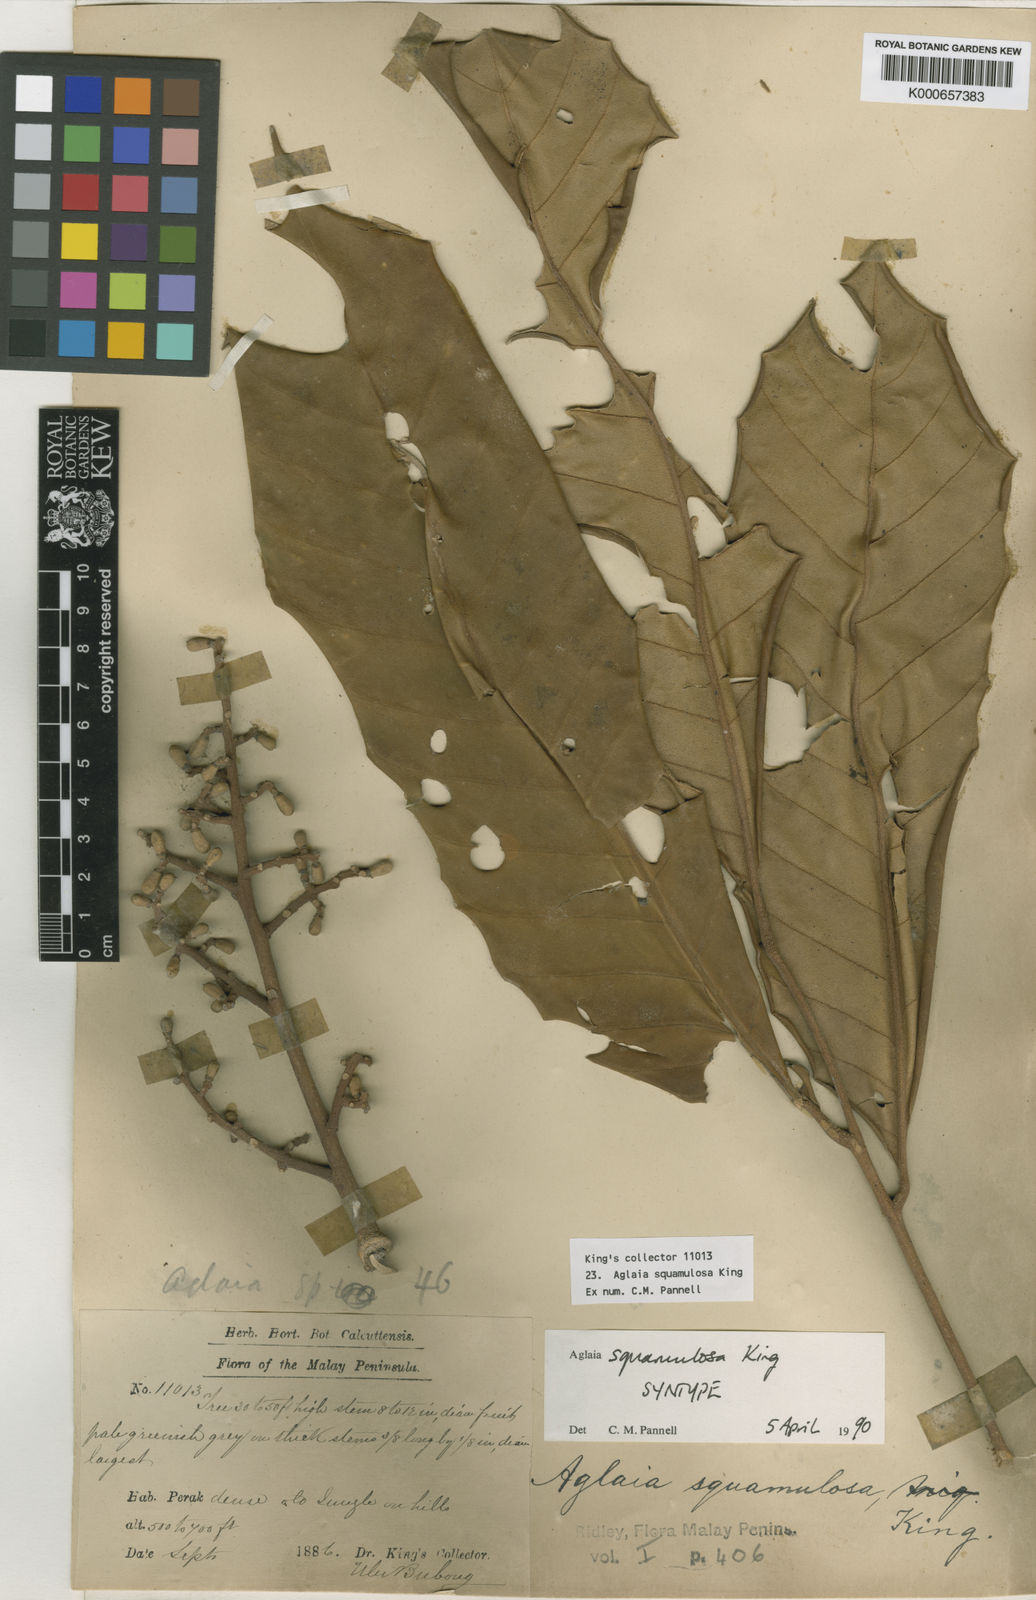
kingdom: Plantae
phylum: Tracheophyta
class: Magnoliopsida
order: Sapindales
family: Meliaceae
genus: Aglaia
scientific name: Aglaia squamulosa
